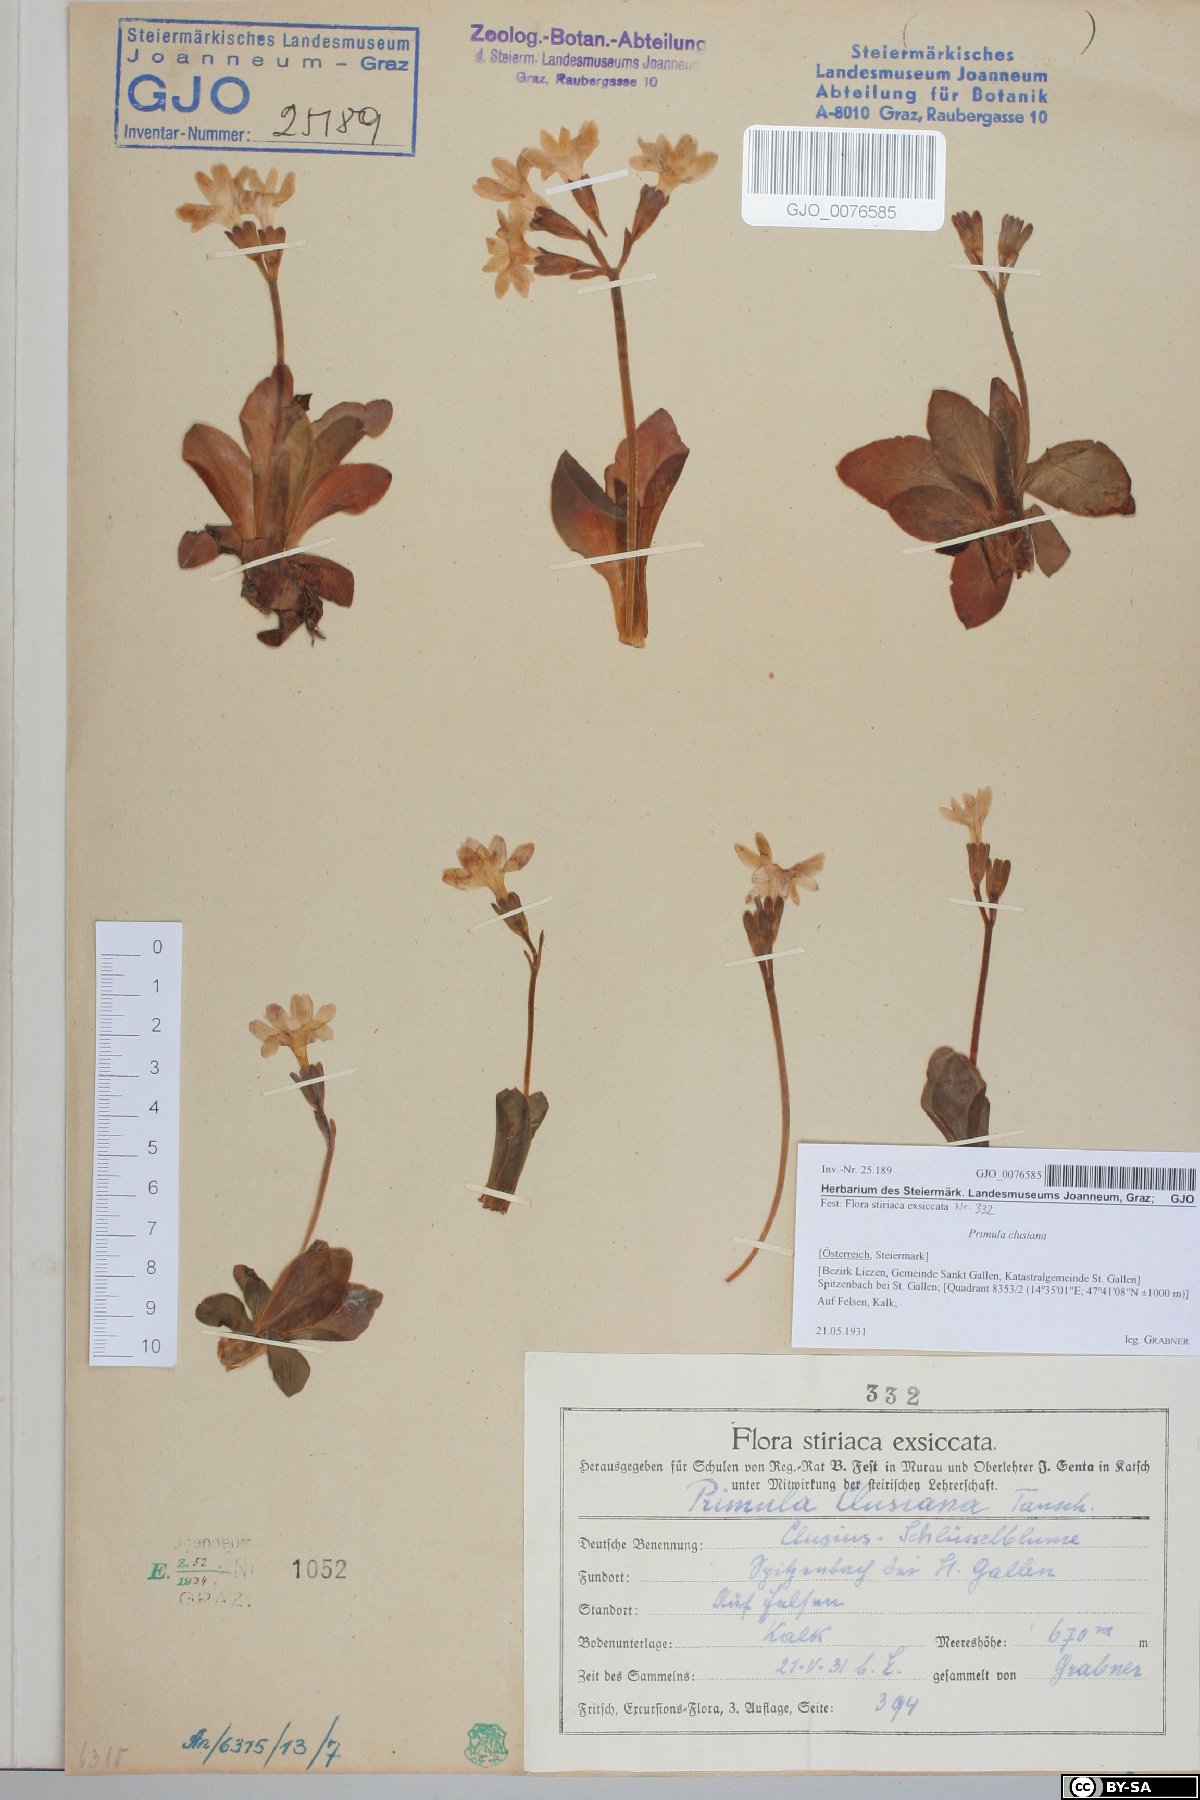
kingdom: Plantae
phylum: Tracheophyta
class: Magnoliopsida
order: Ericales
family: Primulaceae
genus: Primula
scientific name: Primula clusiana
